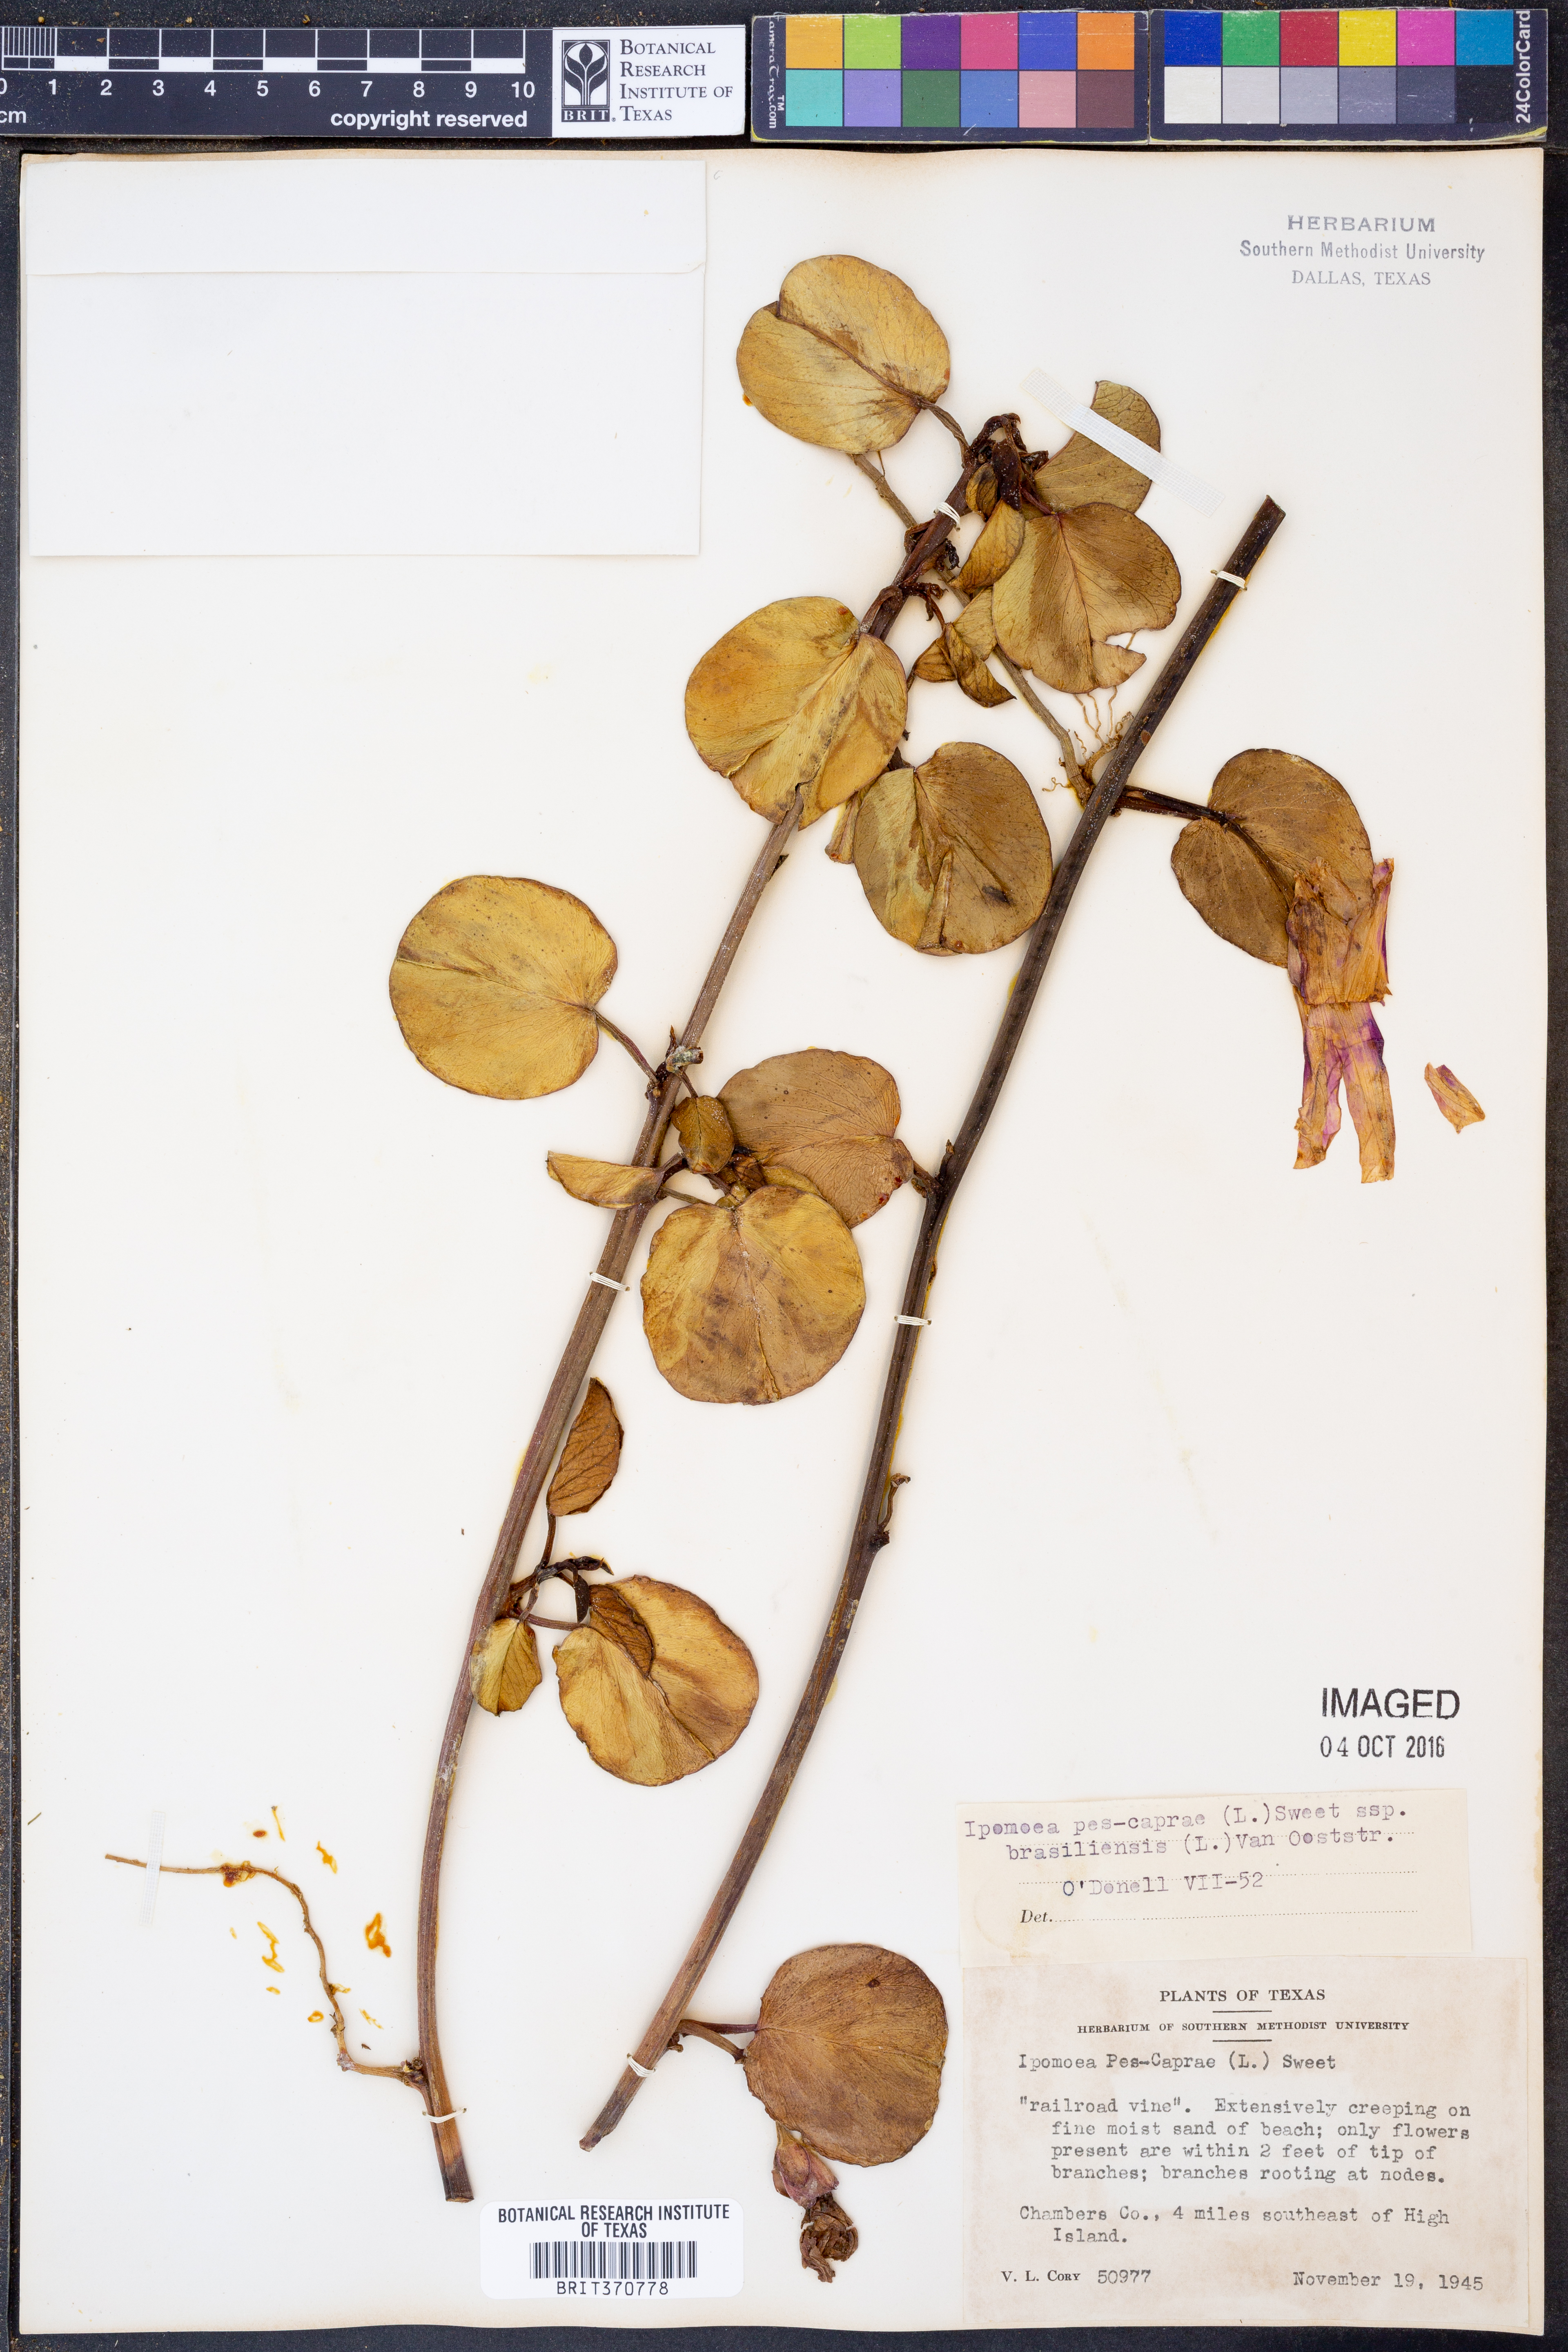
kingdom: Plantae
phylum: Tracheophyta
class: Magnoliopsida
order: Solanales
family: Convolvulaceae
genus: Ipomoea
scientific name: Ipomoea pes-caprae
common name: Beach morning glory
